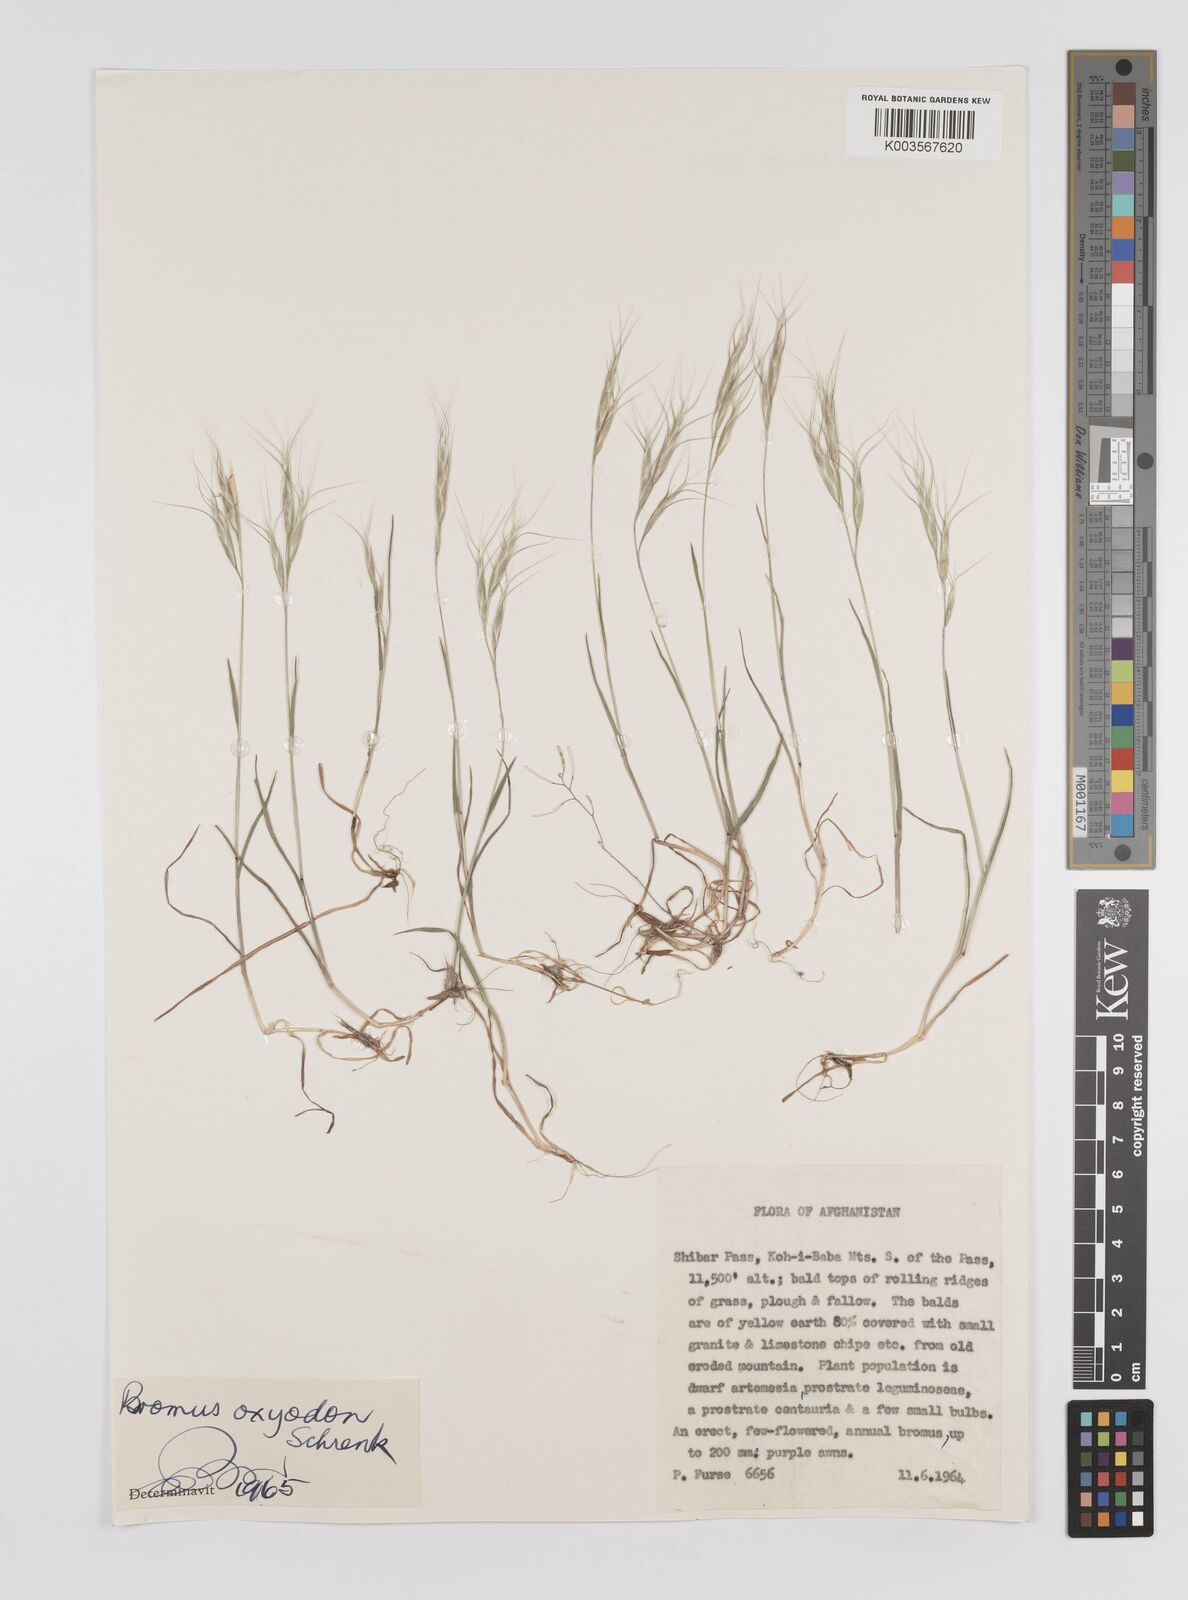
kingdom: Plantae
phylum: Tracheophyta
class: Liliopsida
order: Poales
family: Poaceae
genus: Bromus
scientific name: Bromus oxyodon
